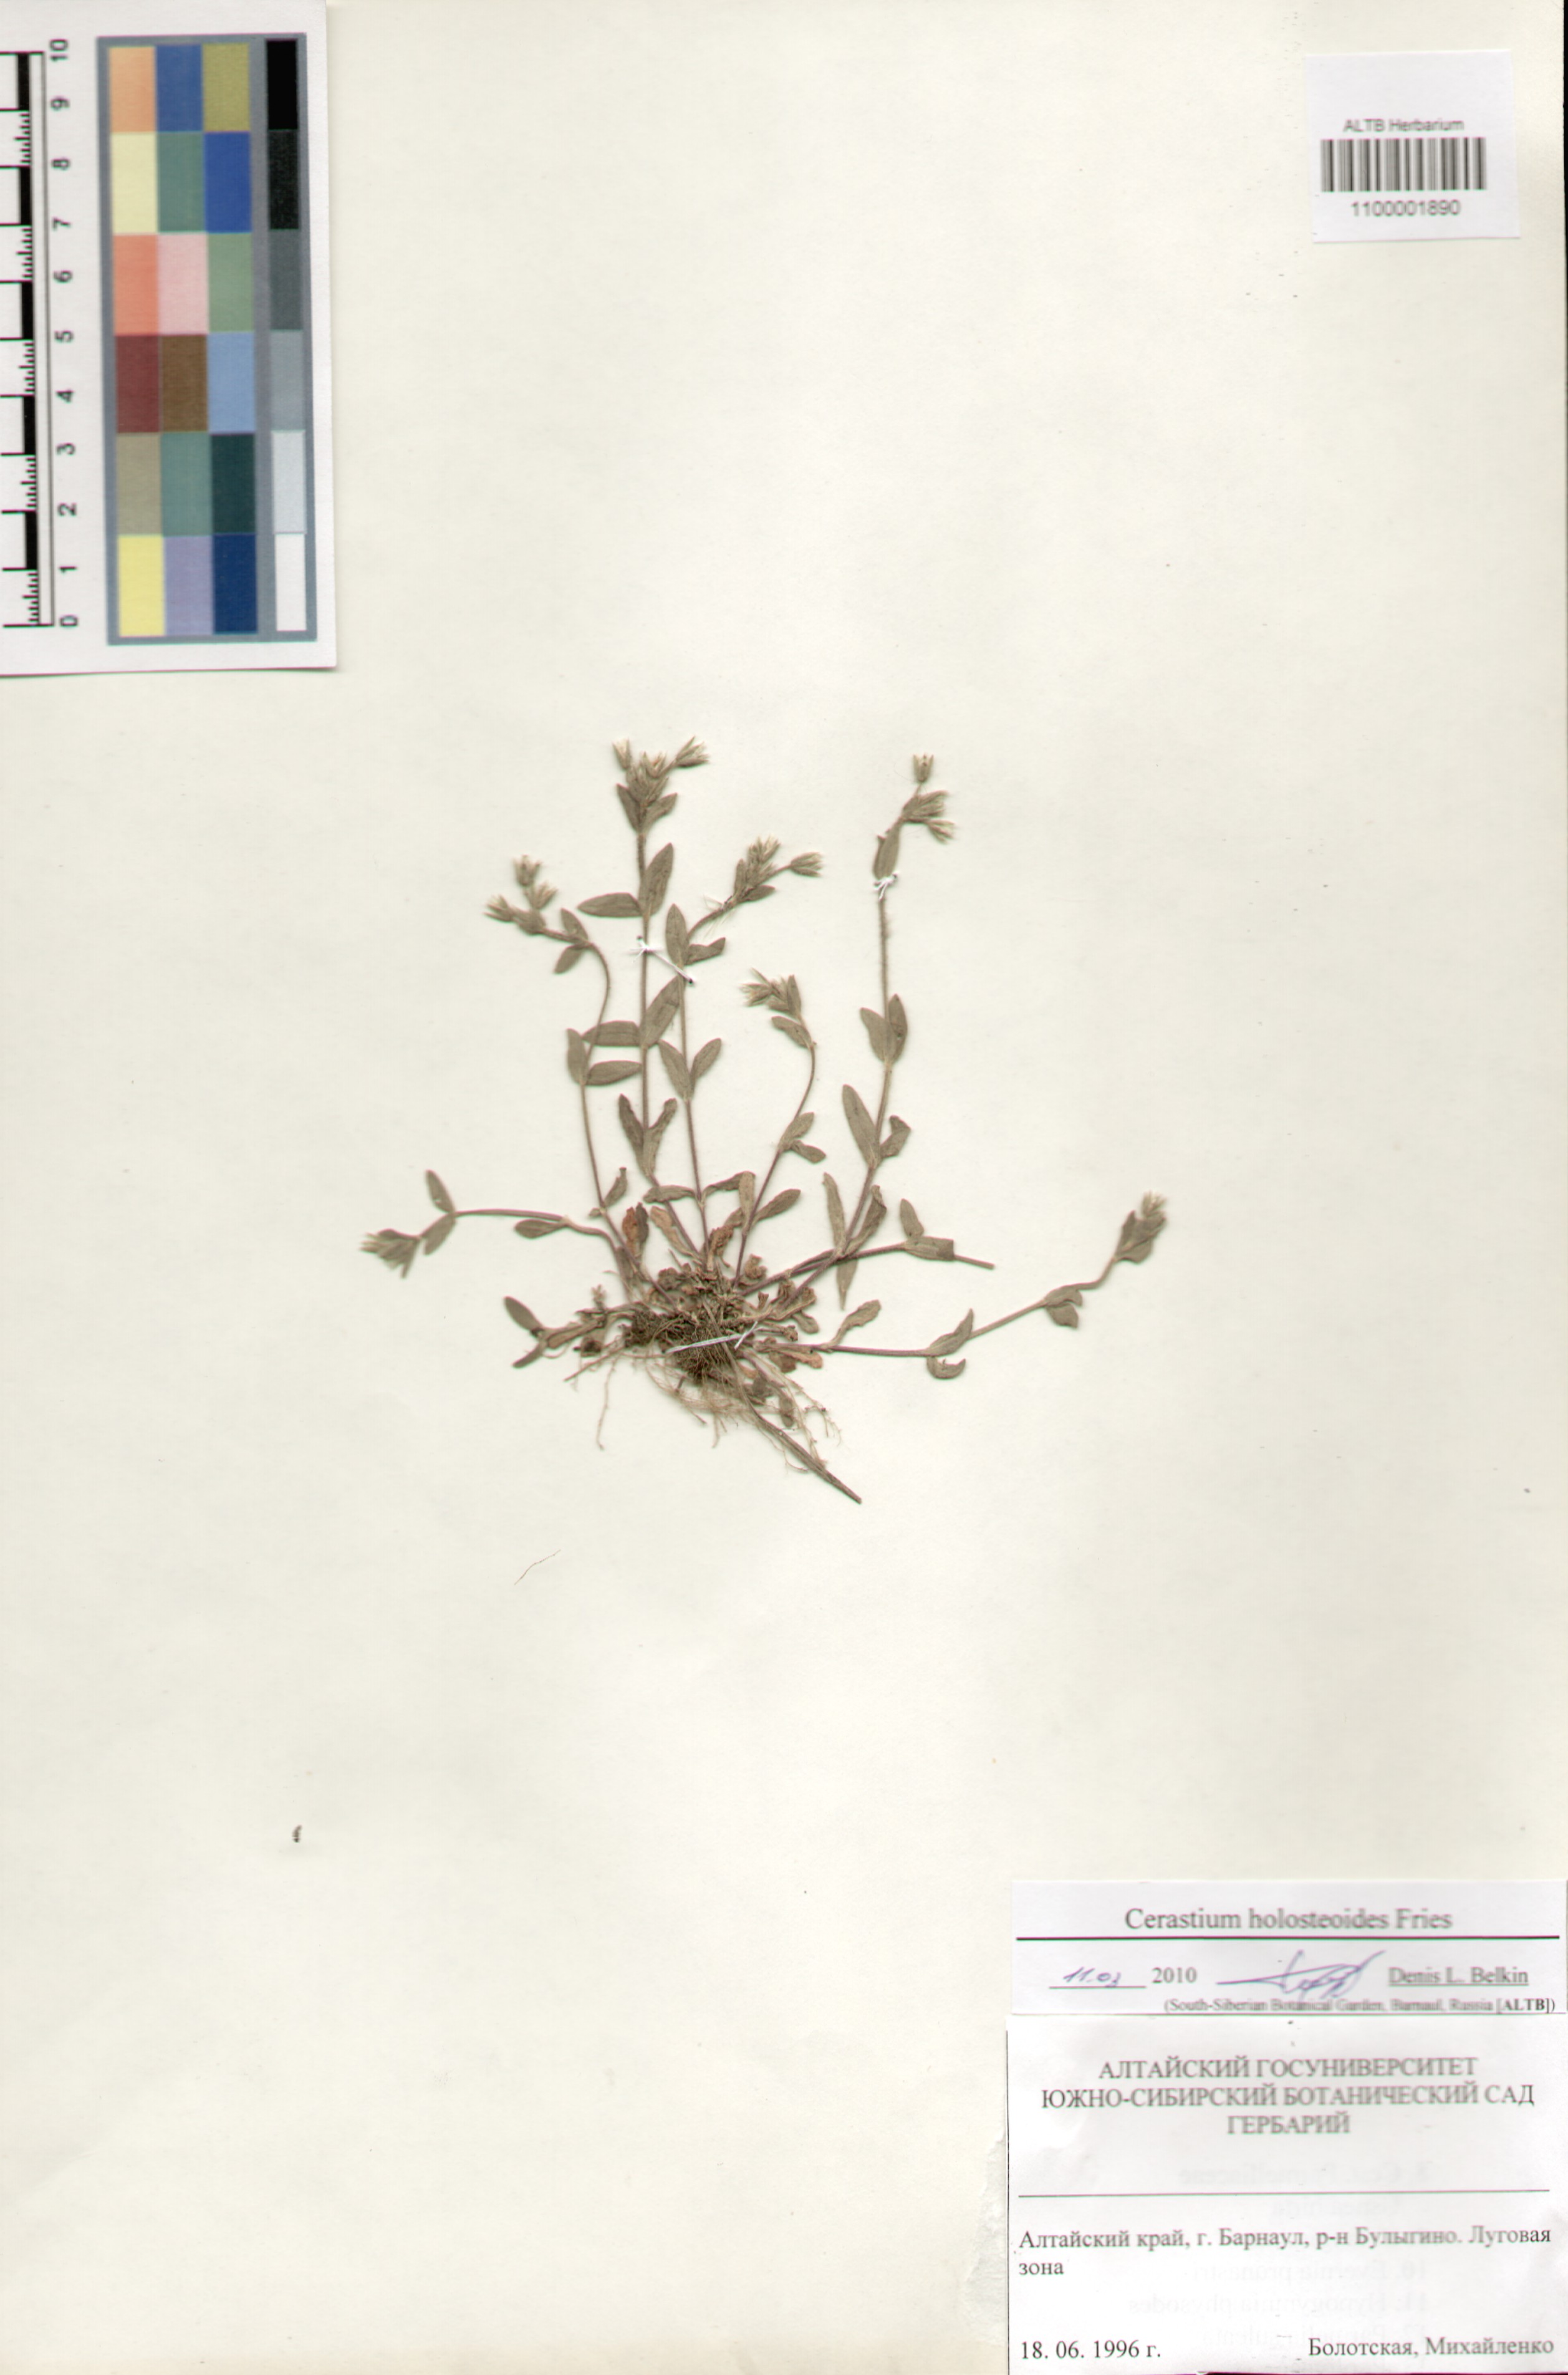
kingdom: Plantae
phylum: Tracheophyta
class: Magnoliopsida
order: Caryophyllales
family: Caryophyllaceae
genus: Cerastium
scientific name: Cerastium holosteoides
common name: Big chickweed
